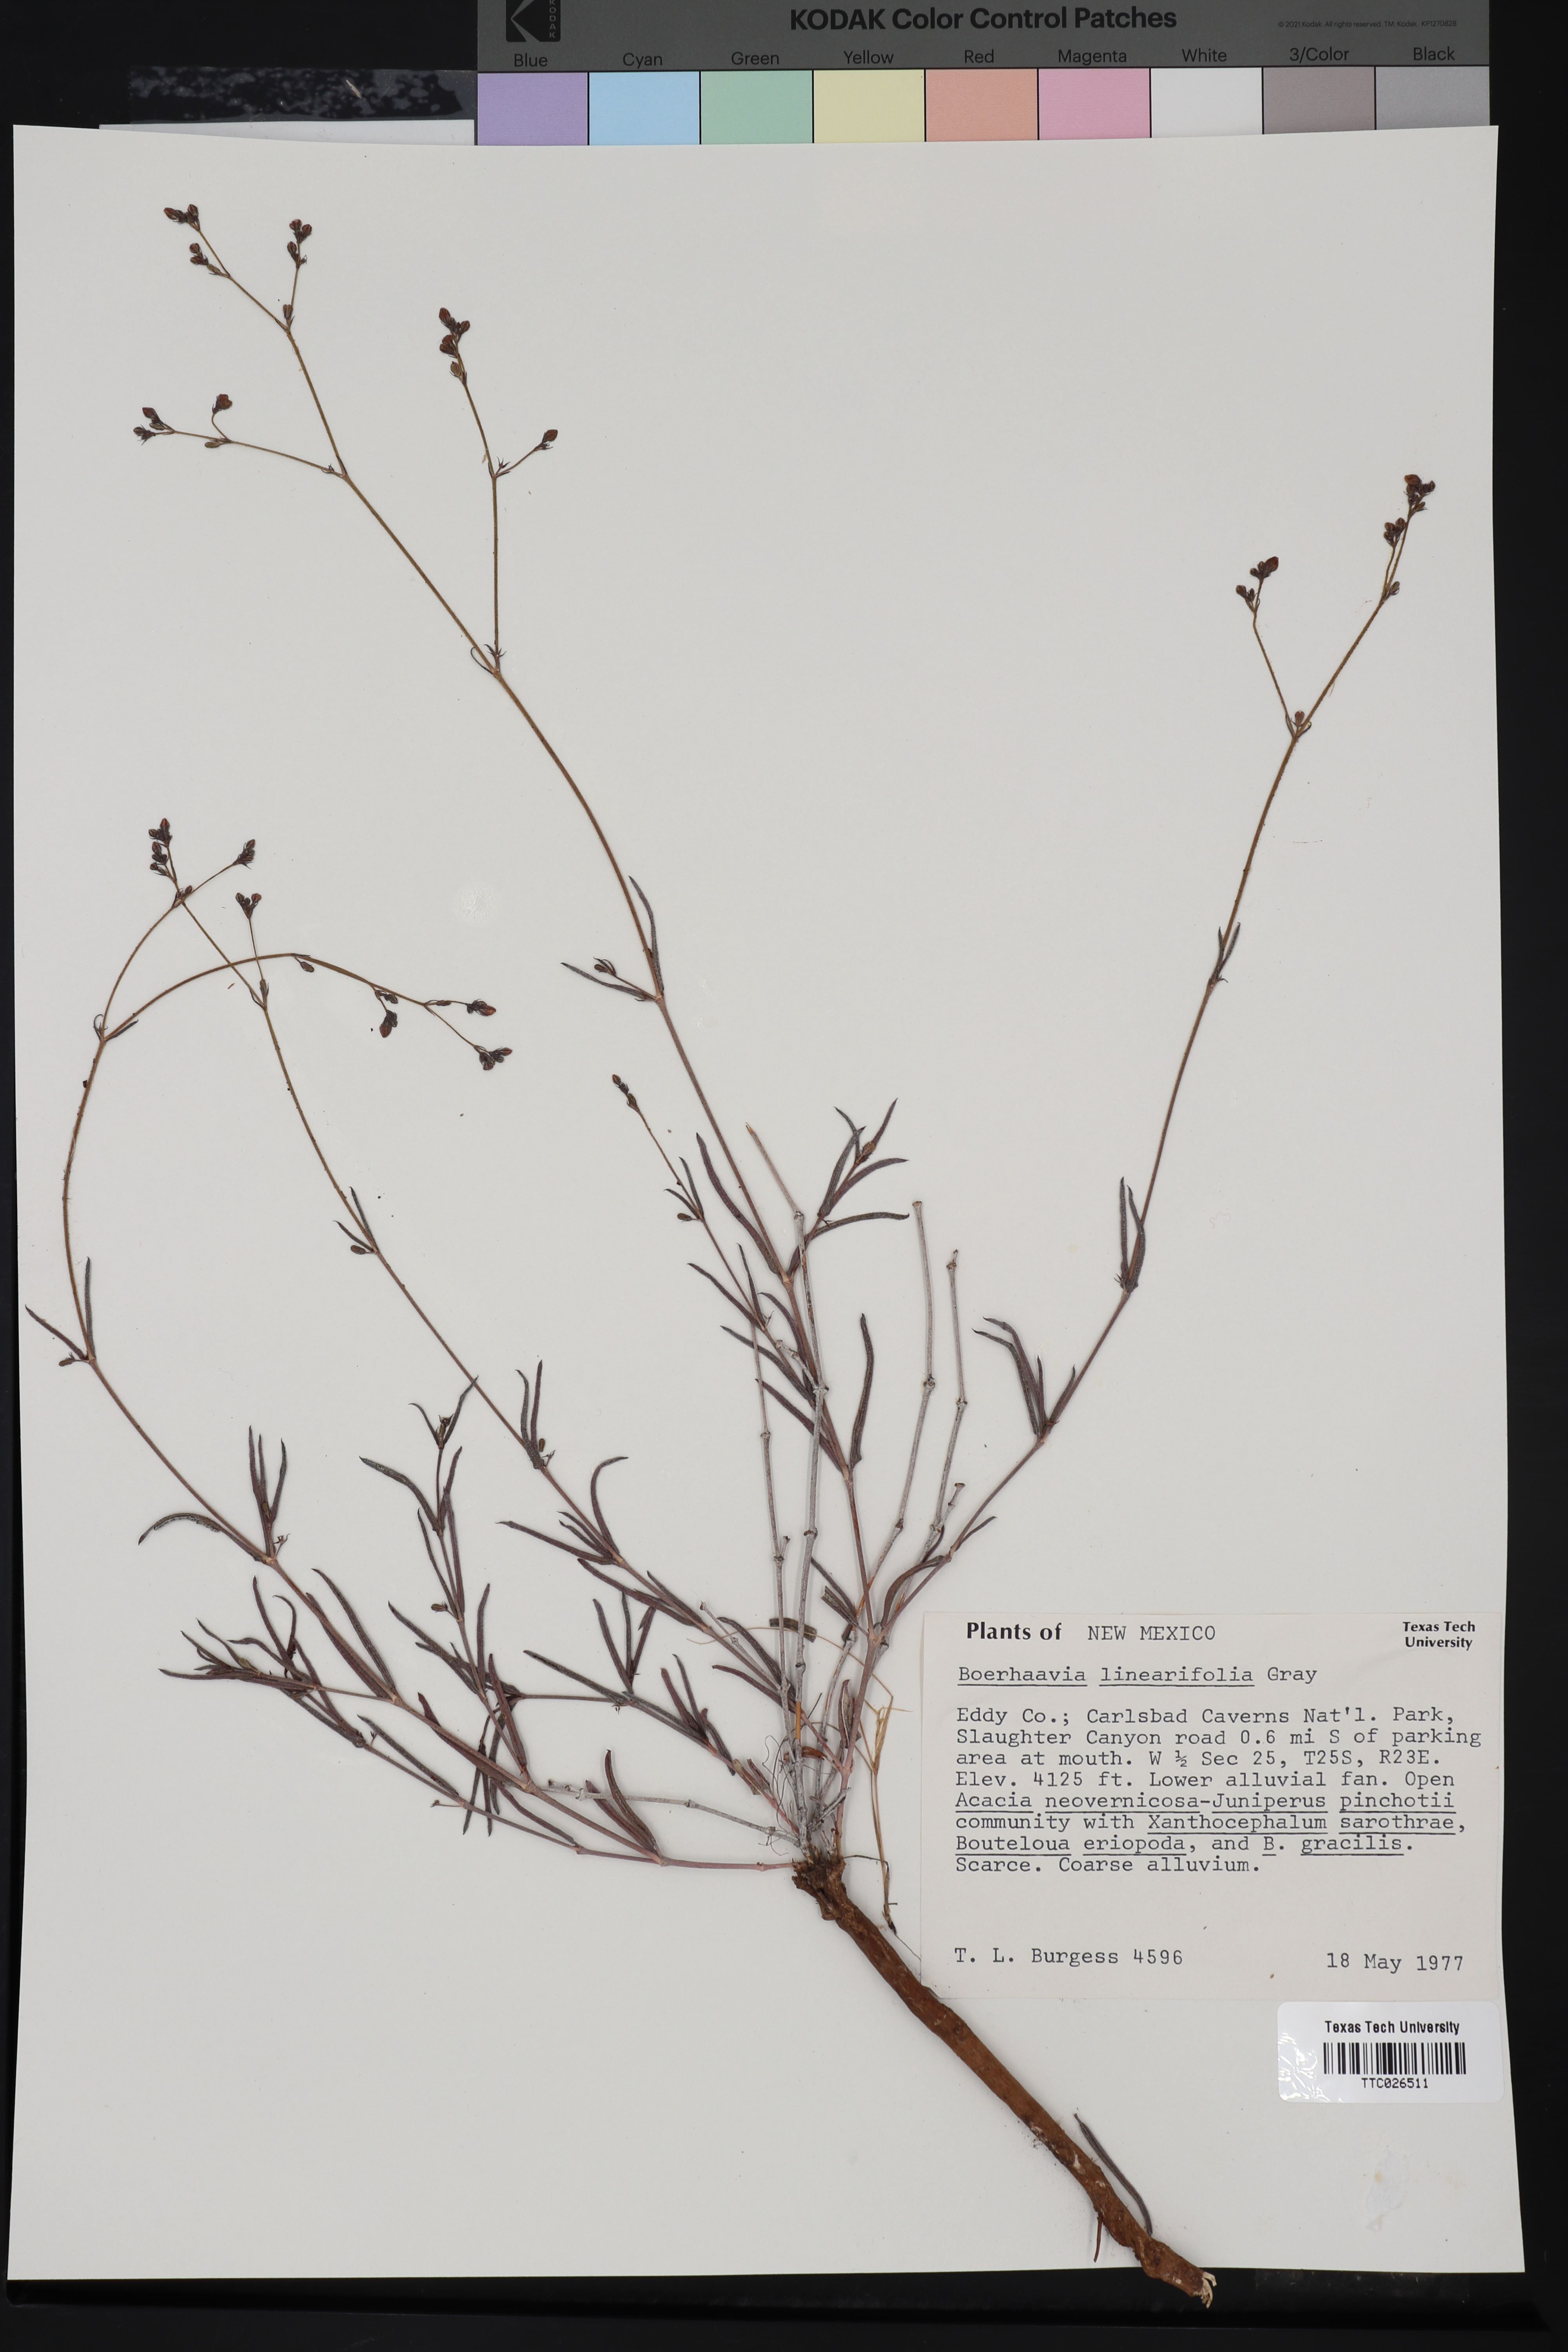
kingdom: Plantae
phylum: Tracheophyta
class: Magnoliopsida
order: Caryophyllales
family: Nyctaginaceae
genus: Boerhavia
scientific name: Boerhavia linearifolia
